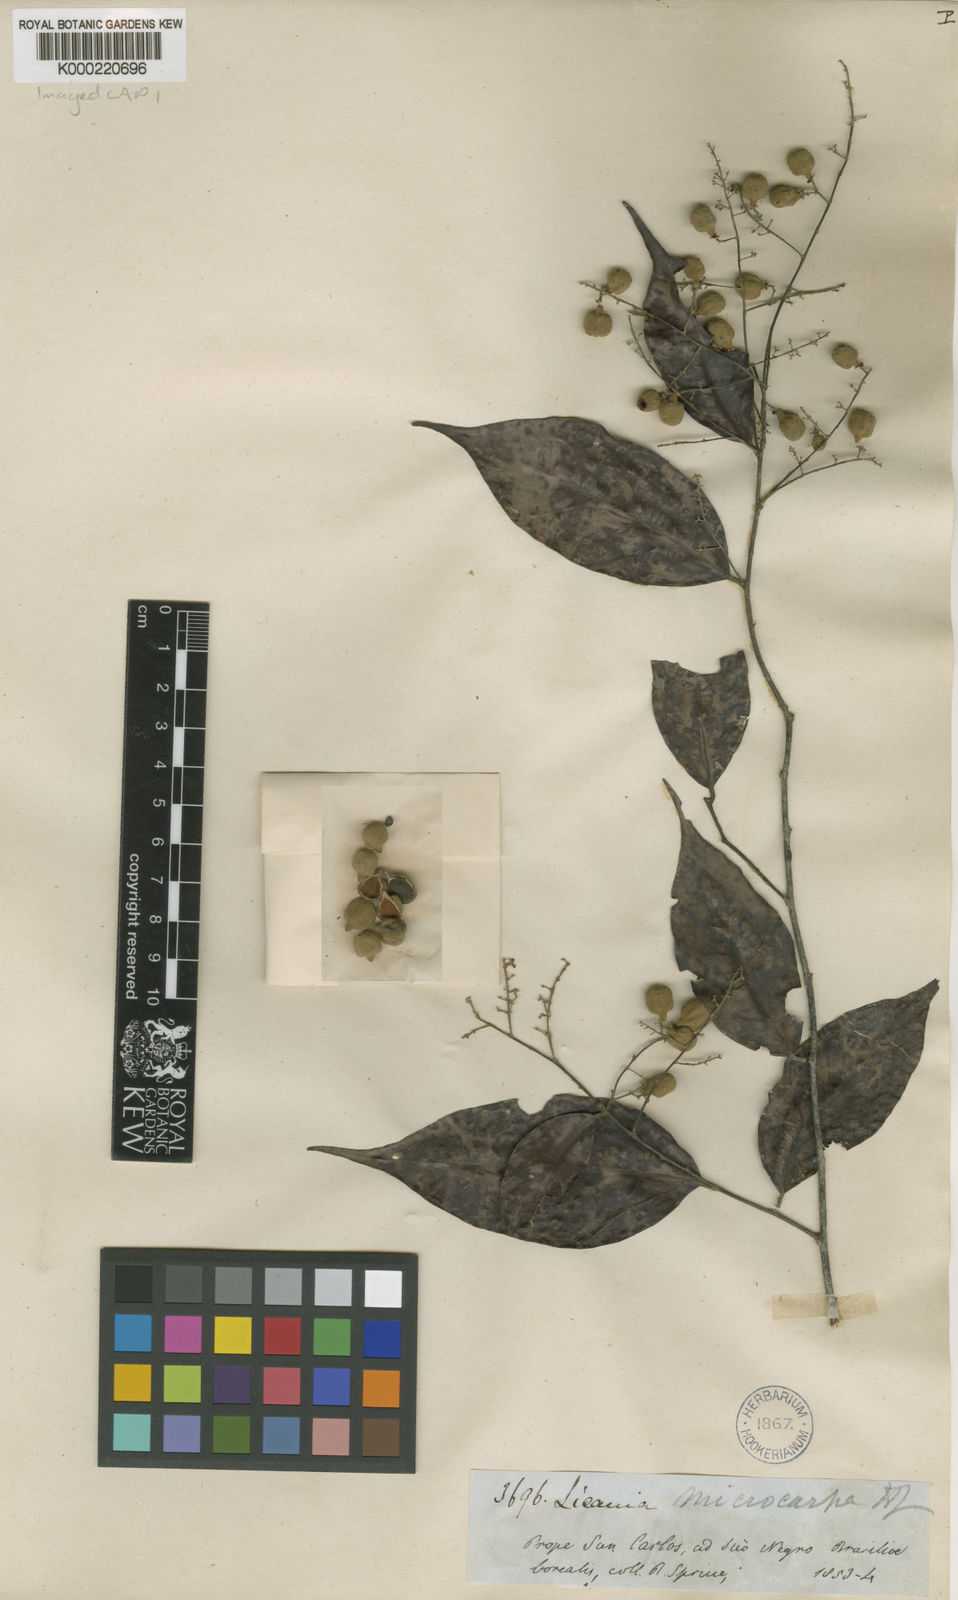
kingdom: Plantae
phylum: Tracheophyta
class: Magnoliopsida
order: Malpighiales
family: Chrysobalanaceae
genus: Licania
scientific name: Licania hypoleuca
